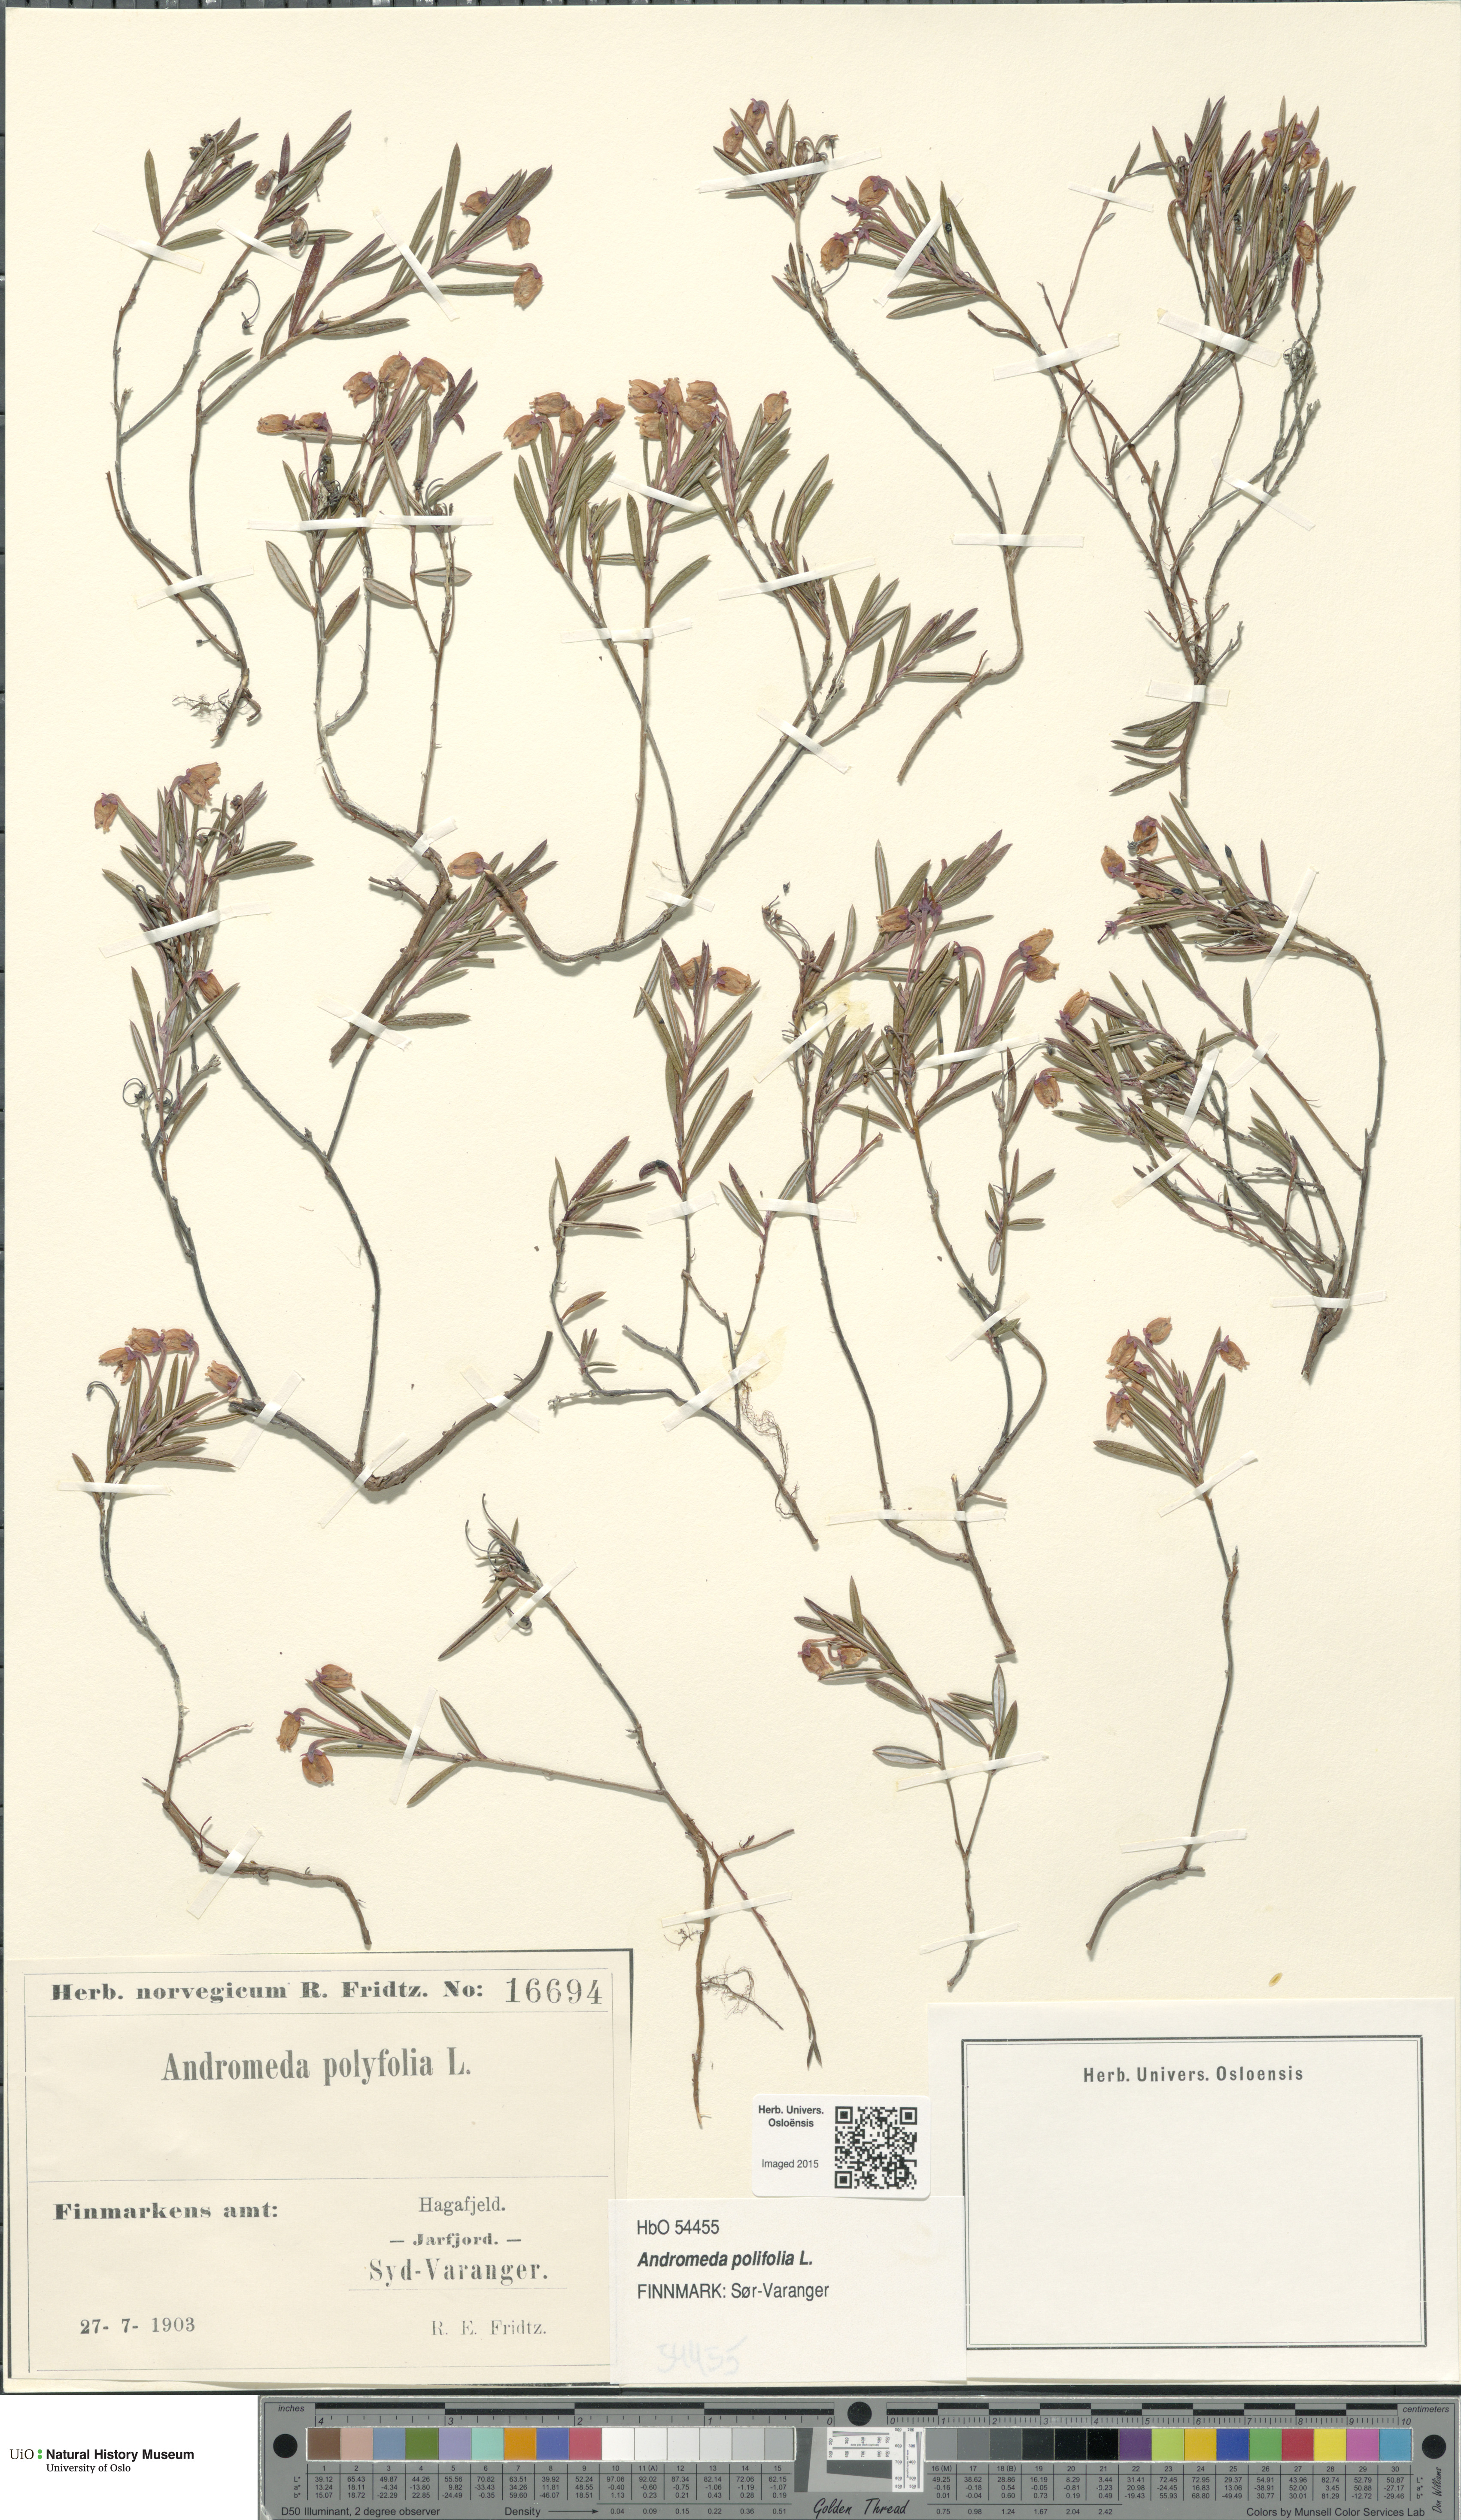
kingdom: Plantae
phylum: Tracheophyta
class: Magnoliopsida
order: Ericales
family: Ericaceae
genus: Andromeda
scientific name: Andromeda polifolia
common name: Bog-rosemary
